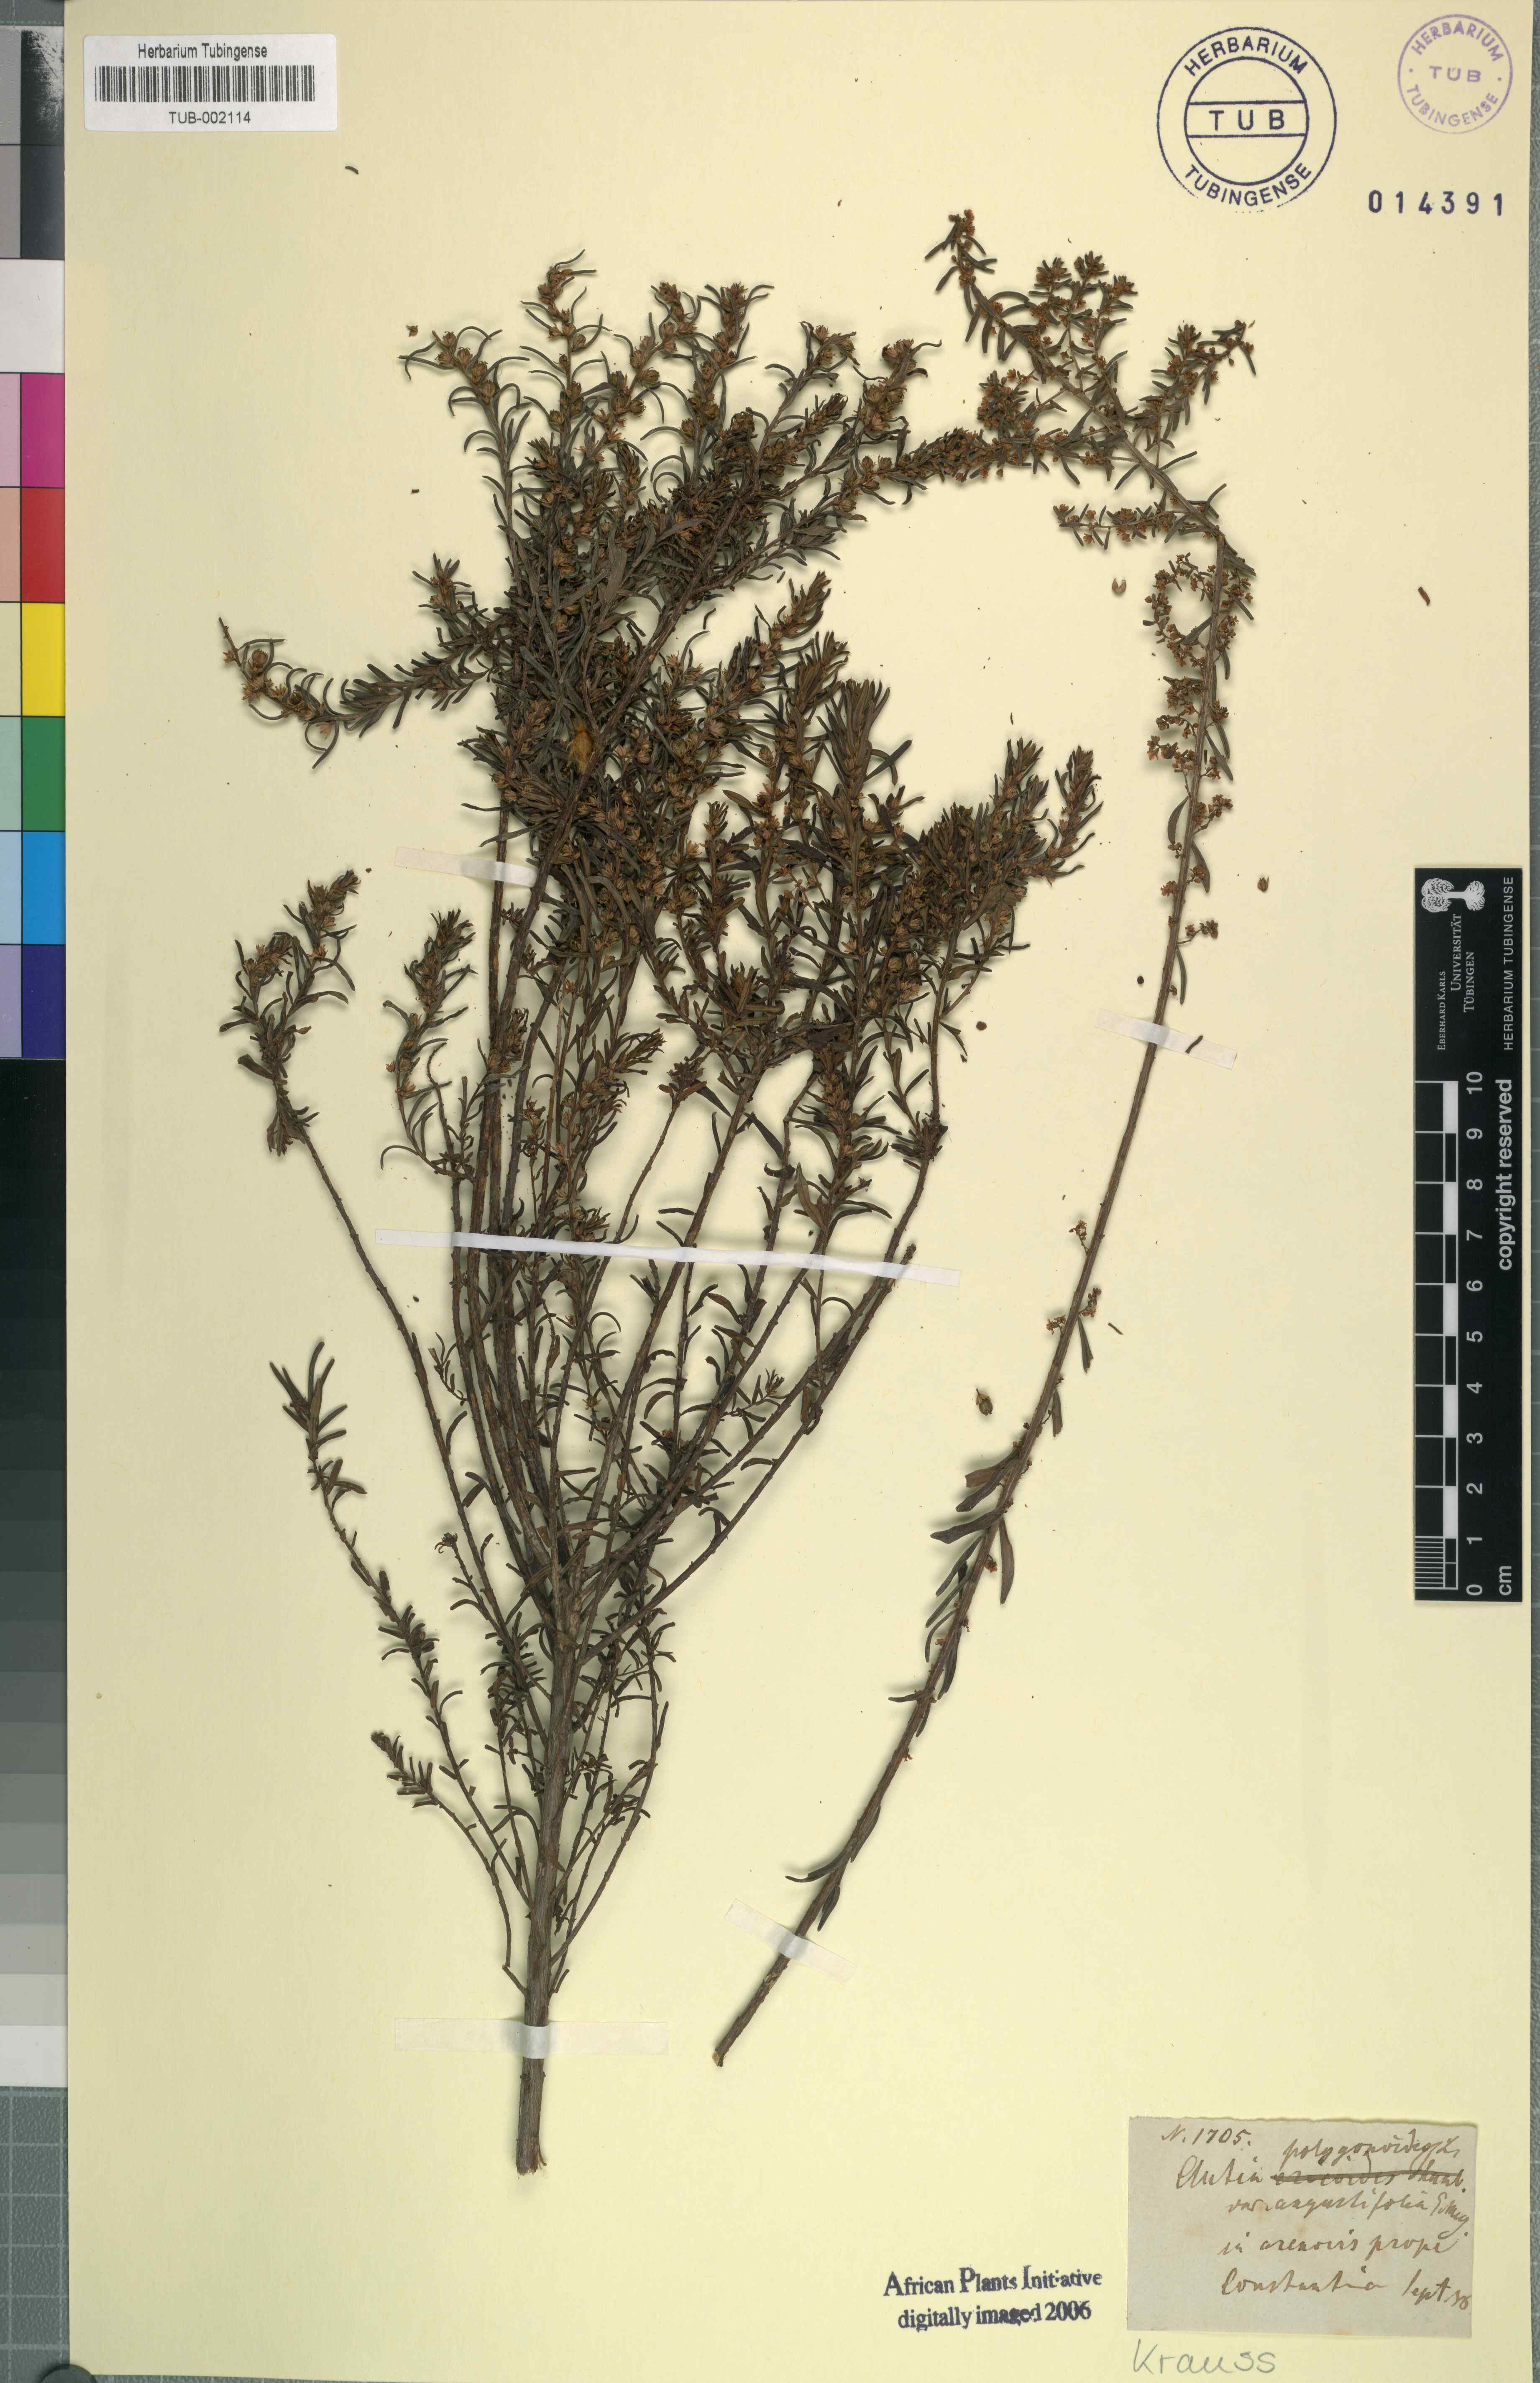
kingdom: Plantae
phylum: Tracheophyta
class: Magnoliopsida
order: Malpighiales
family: Peraceae
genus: Clutia
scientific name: Clutia polygonoides
